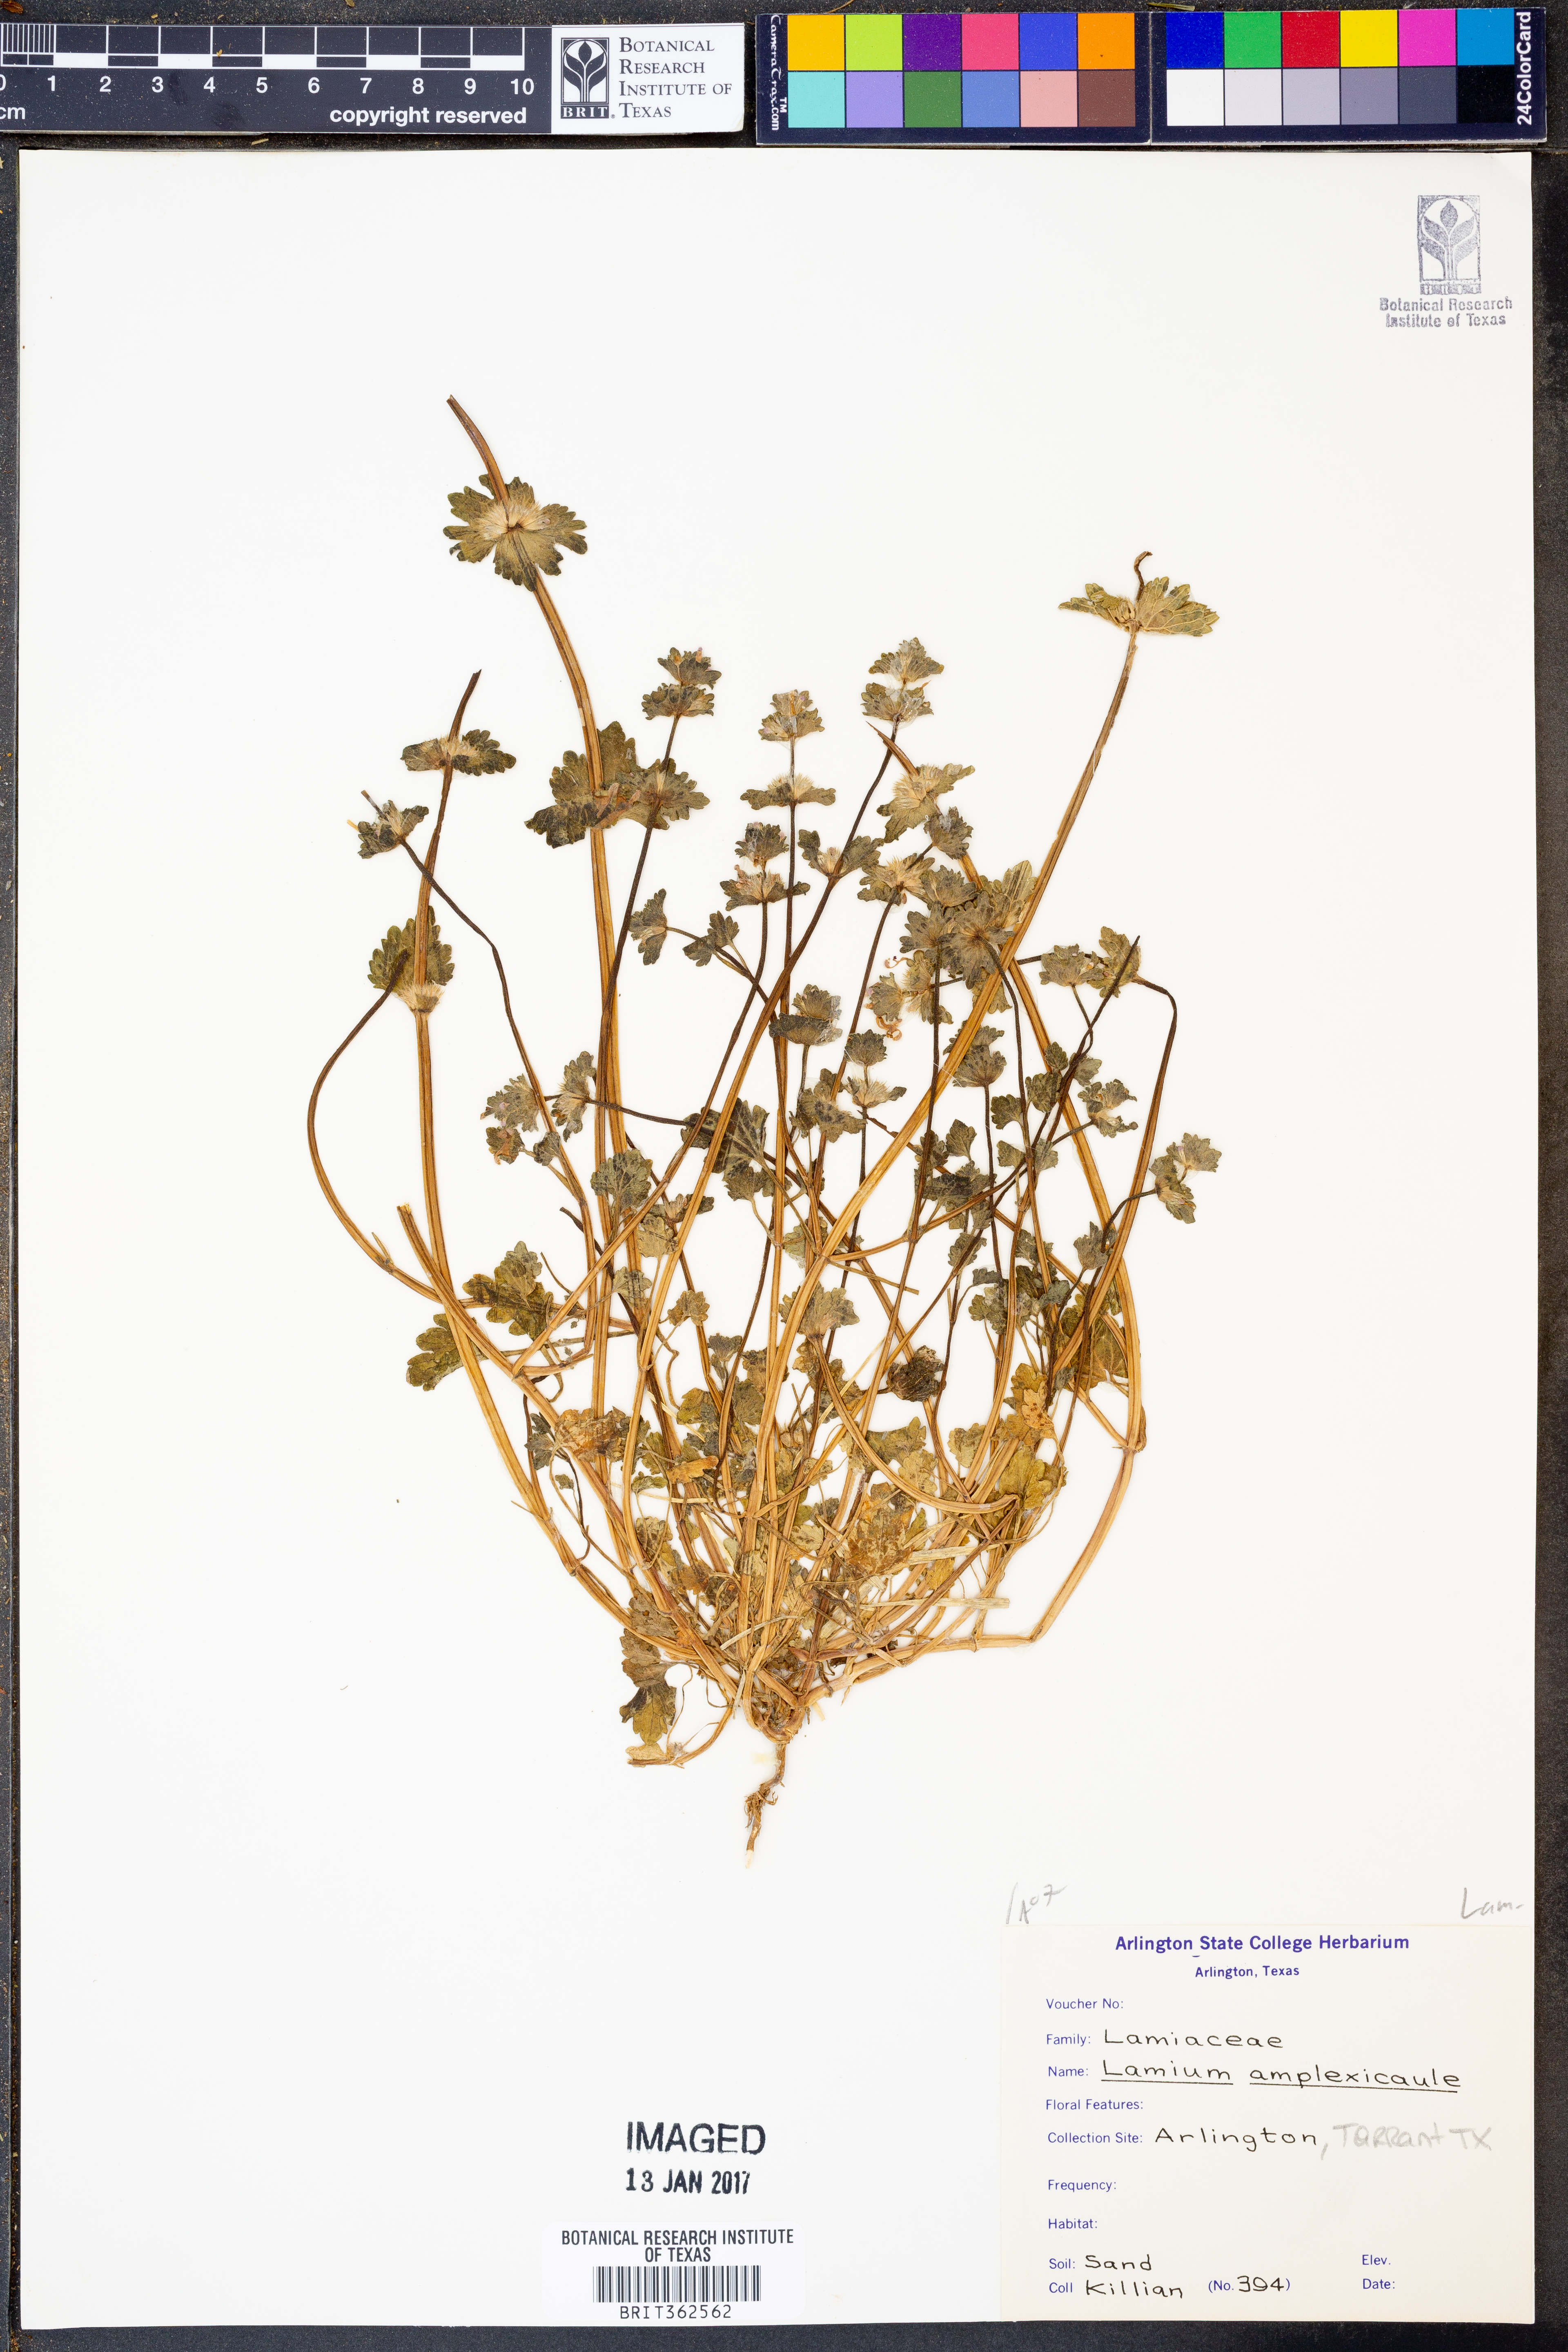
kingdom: Plantae
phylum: Tracheophyta
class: Magnoliopsida
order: Lamiales
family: Lamiaceae
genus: Lamium
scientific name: Lamium amplexicaule
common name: Henbit dead-nettle
